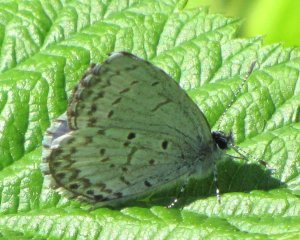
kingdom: Animalia
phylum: Arthropoda
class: Insecta
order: Lepidoptera
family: Lycaenidae
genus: Celastrina
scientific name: Celastrina serotina
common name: Cherry Gall Azure
